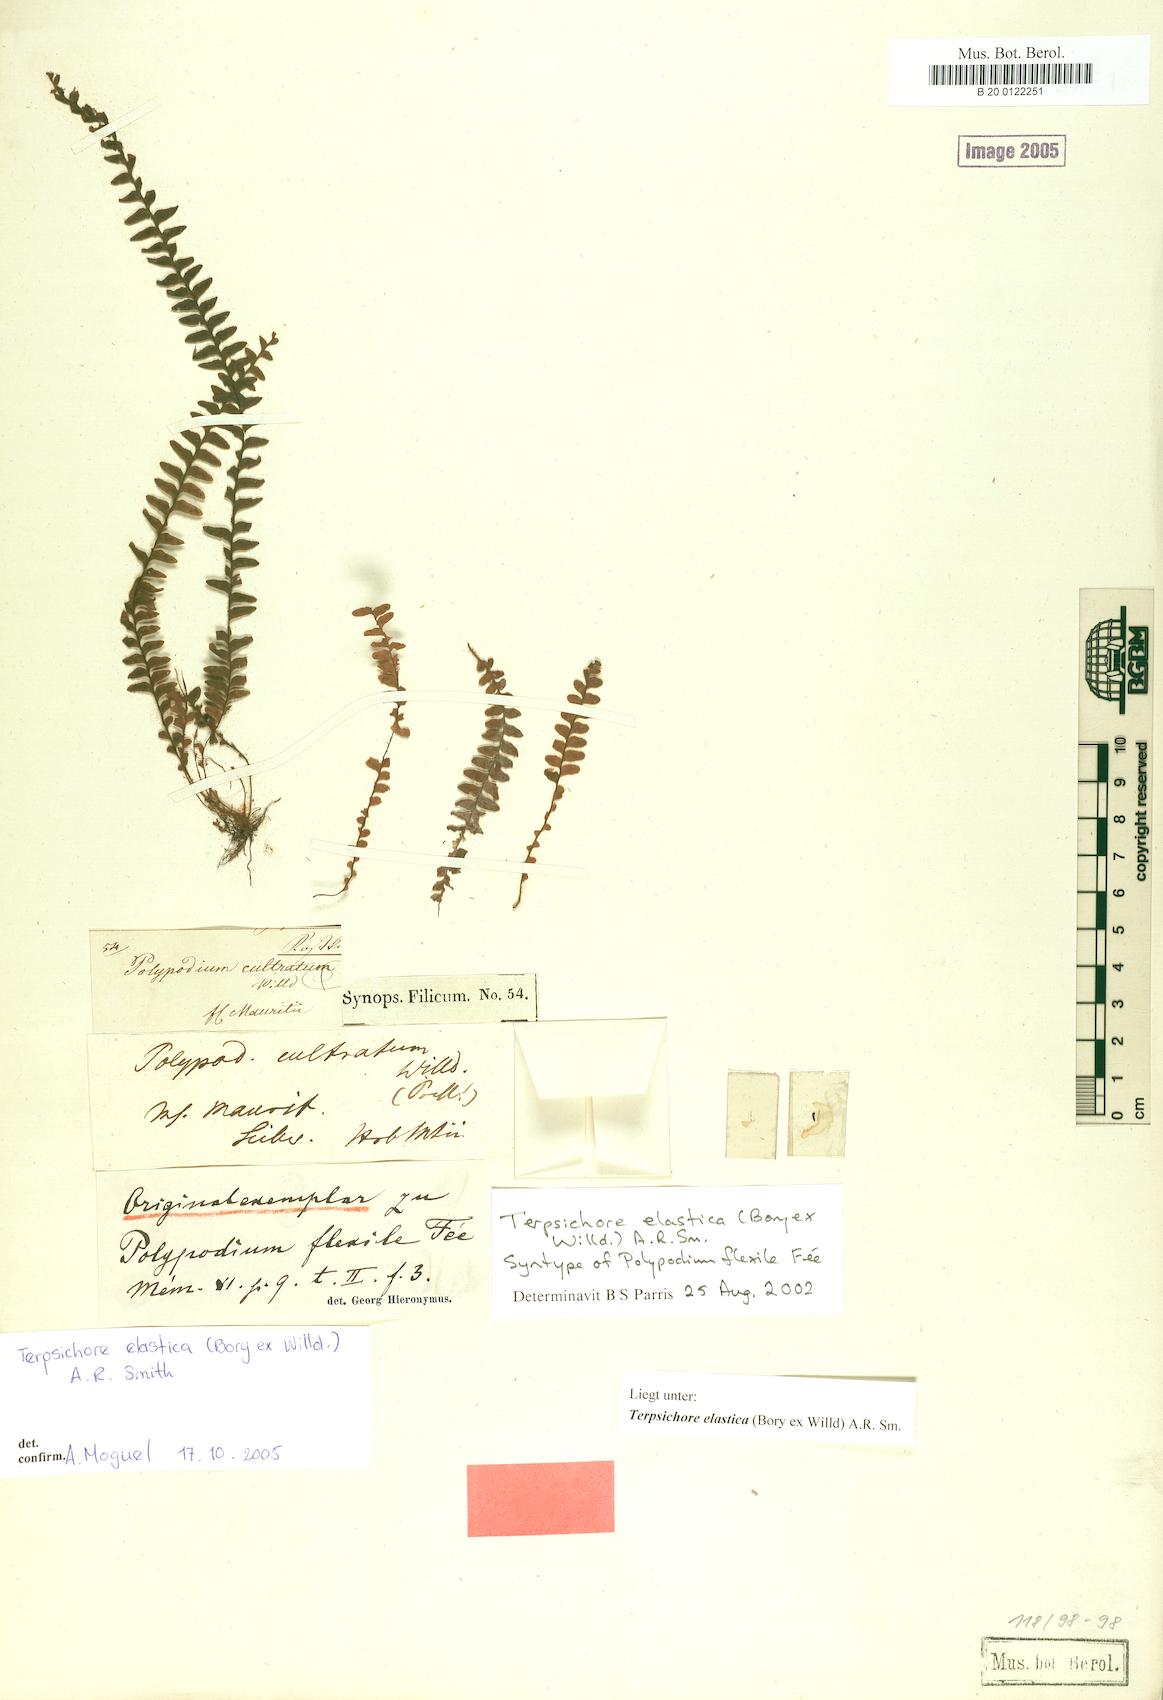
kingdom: Plantae
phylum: Tracheophyta
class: Polypodiopsida
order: Polypodiales
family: Polypodiaceae
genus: Alansmia
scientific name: Alansmia elastica
